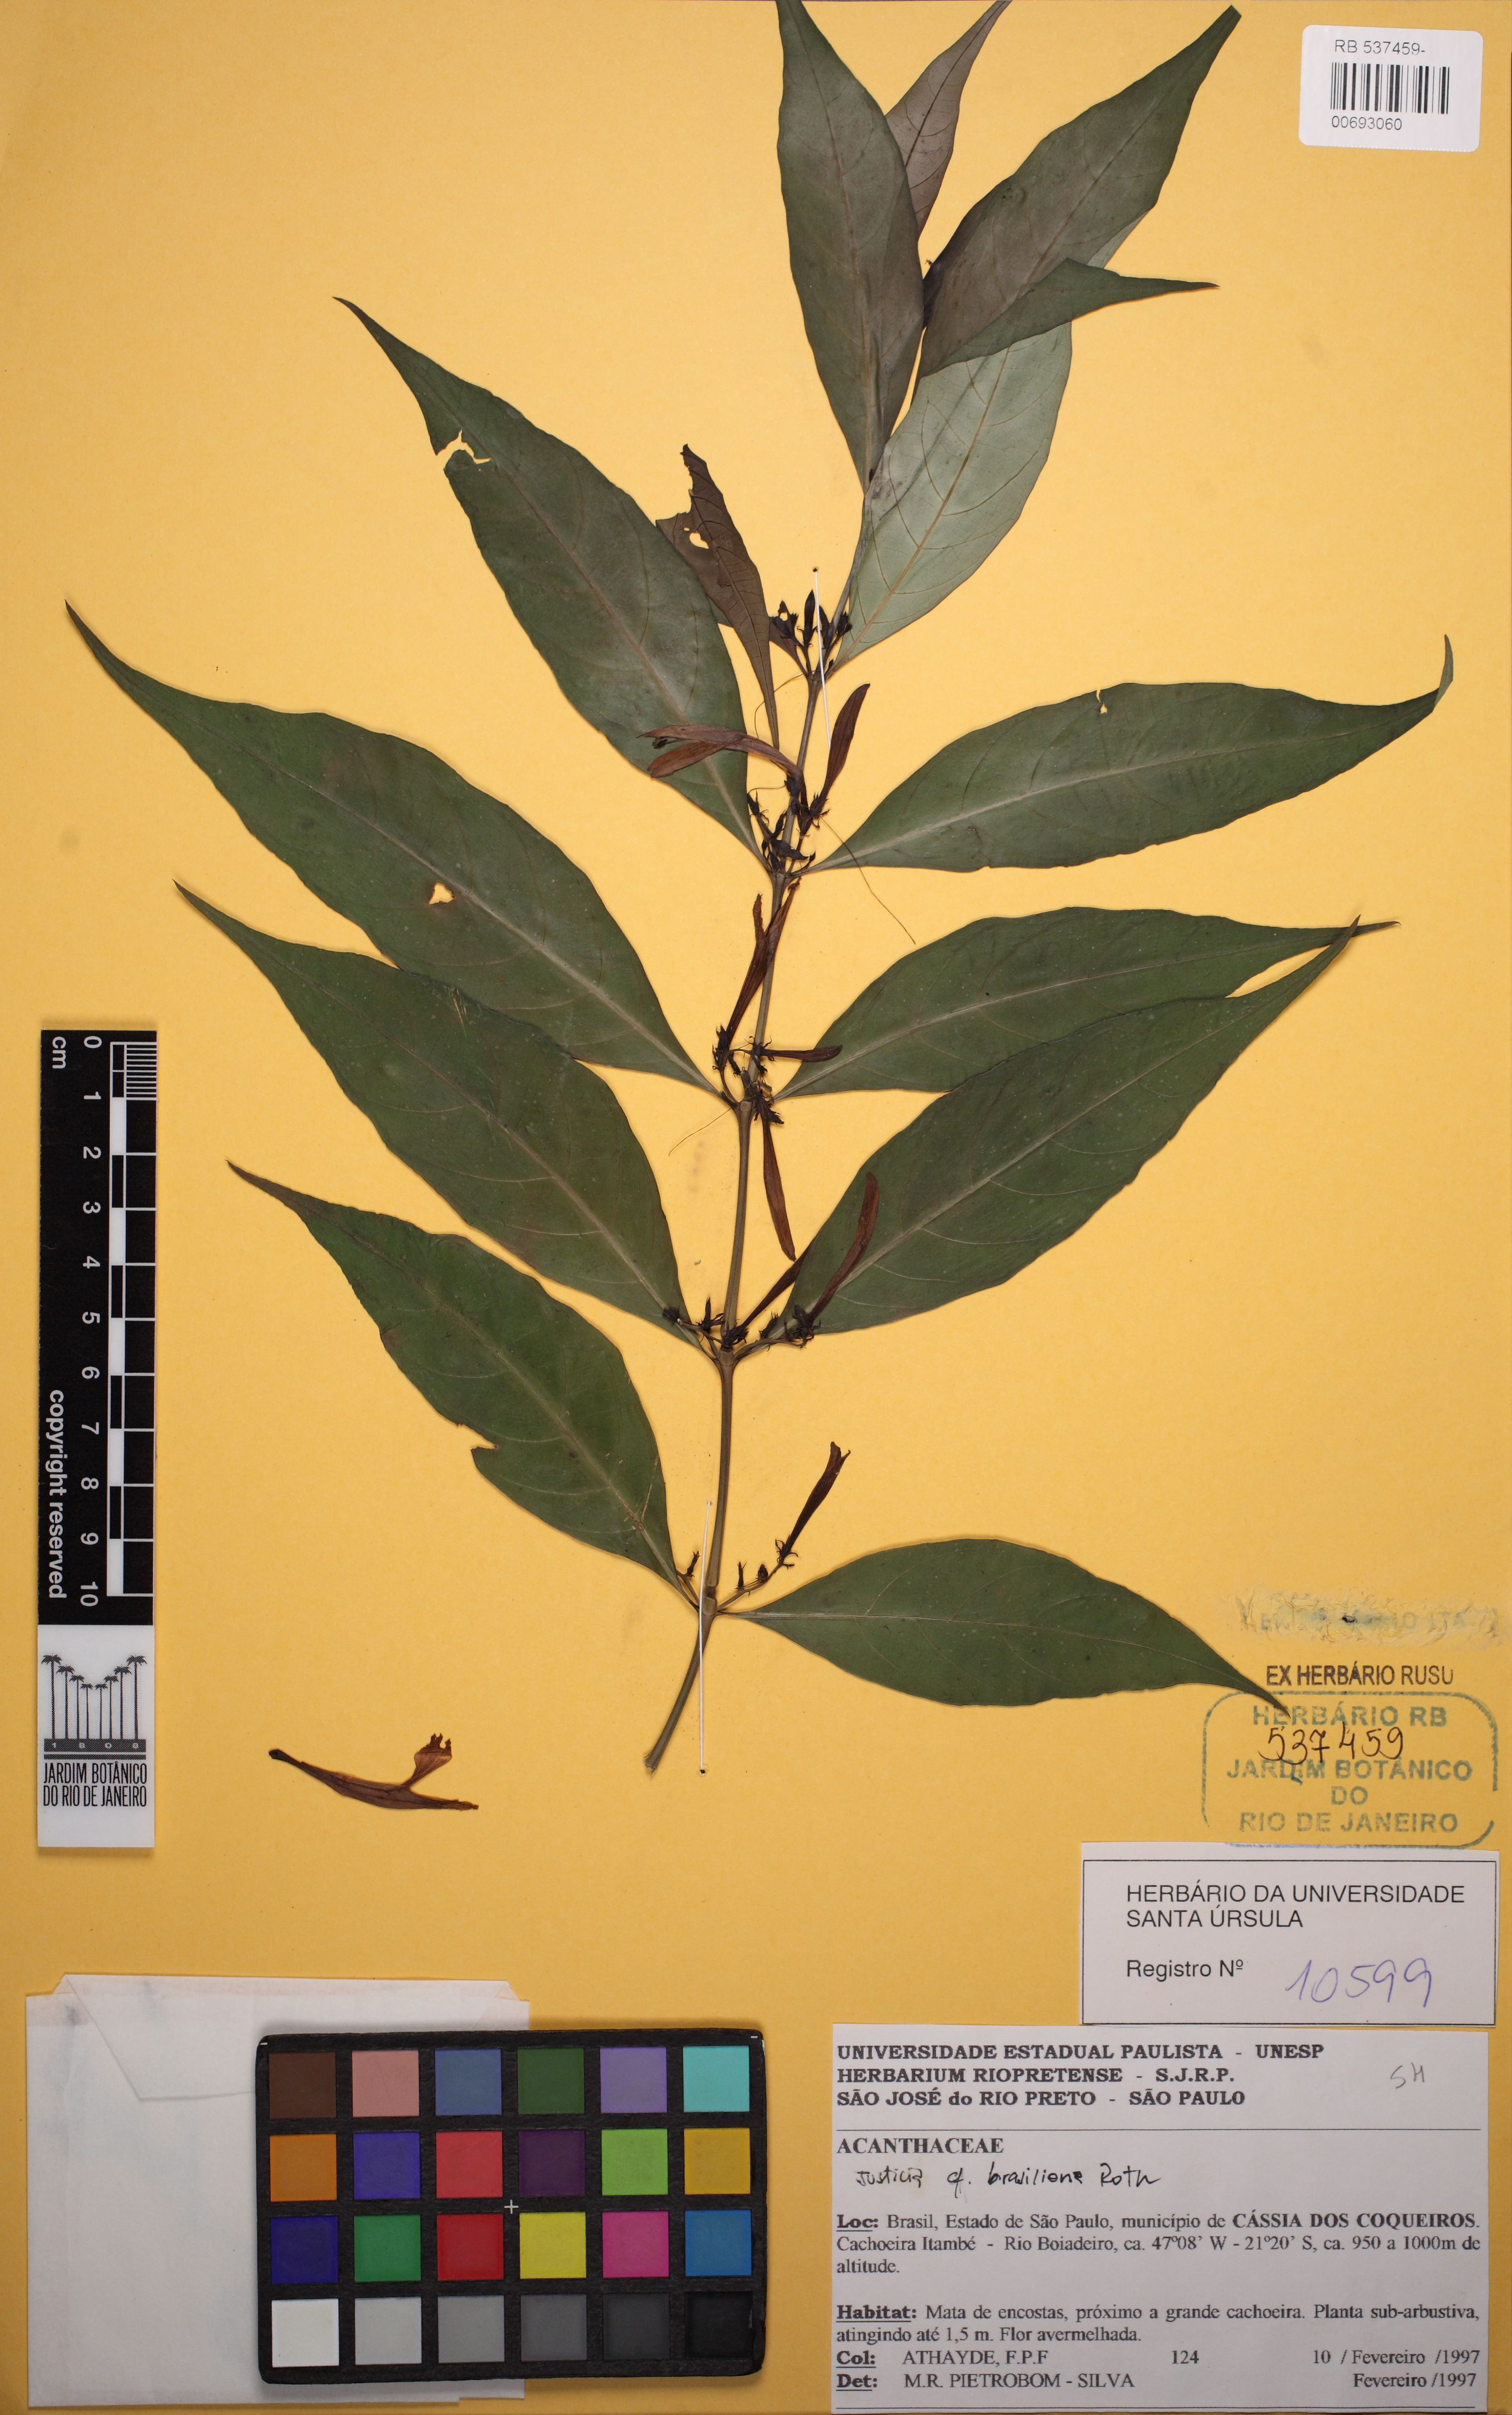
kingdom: Plantae
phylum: Tracheophyta
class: Magnoliopsida
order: Lamiales
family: Acanthaceae
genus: Justicia
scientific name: Justicia brasiliana
